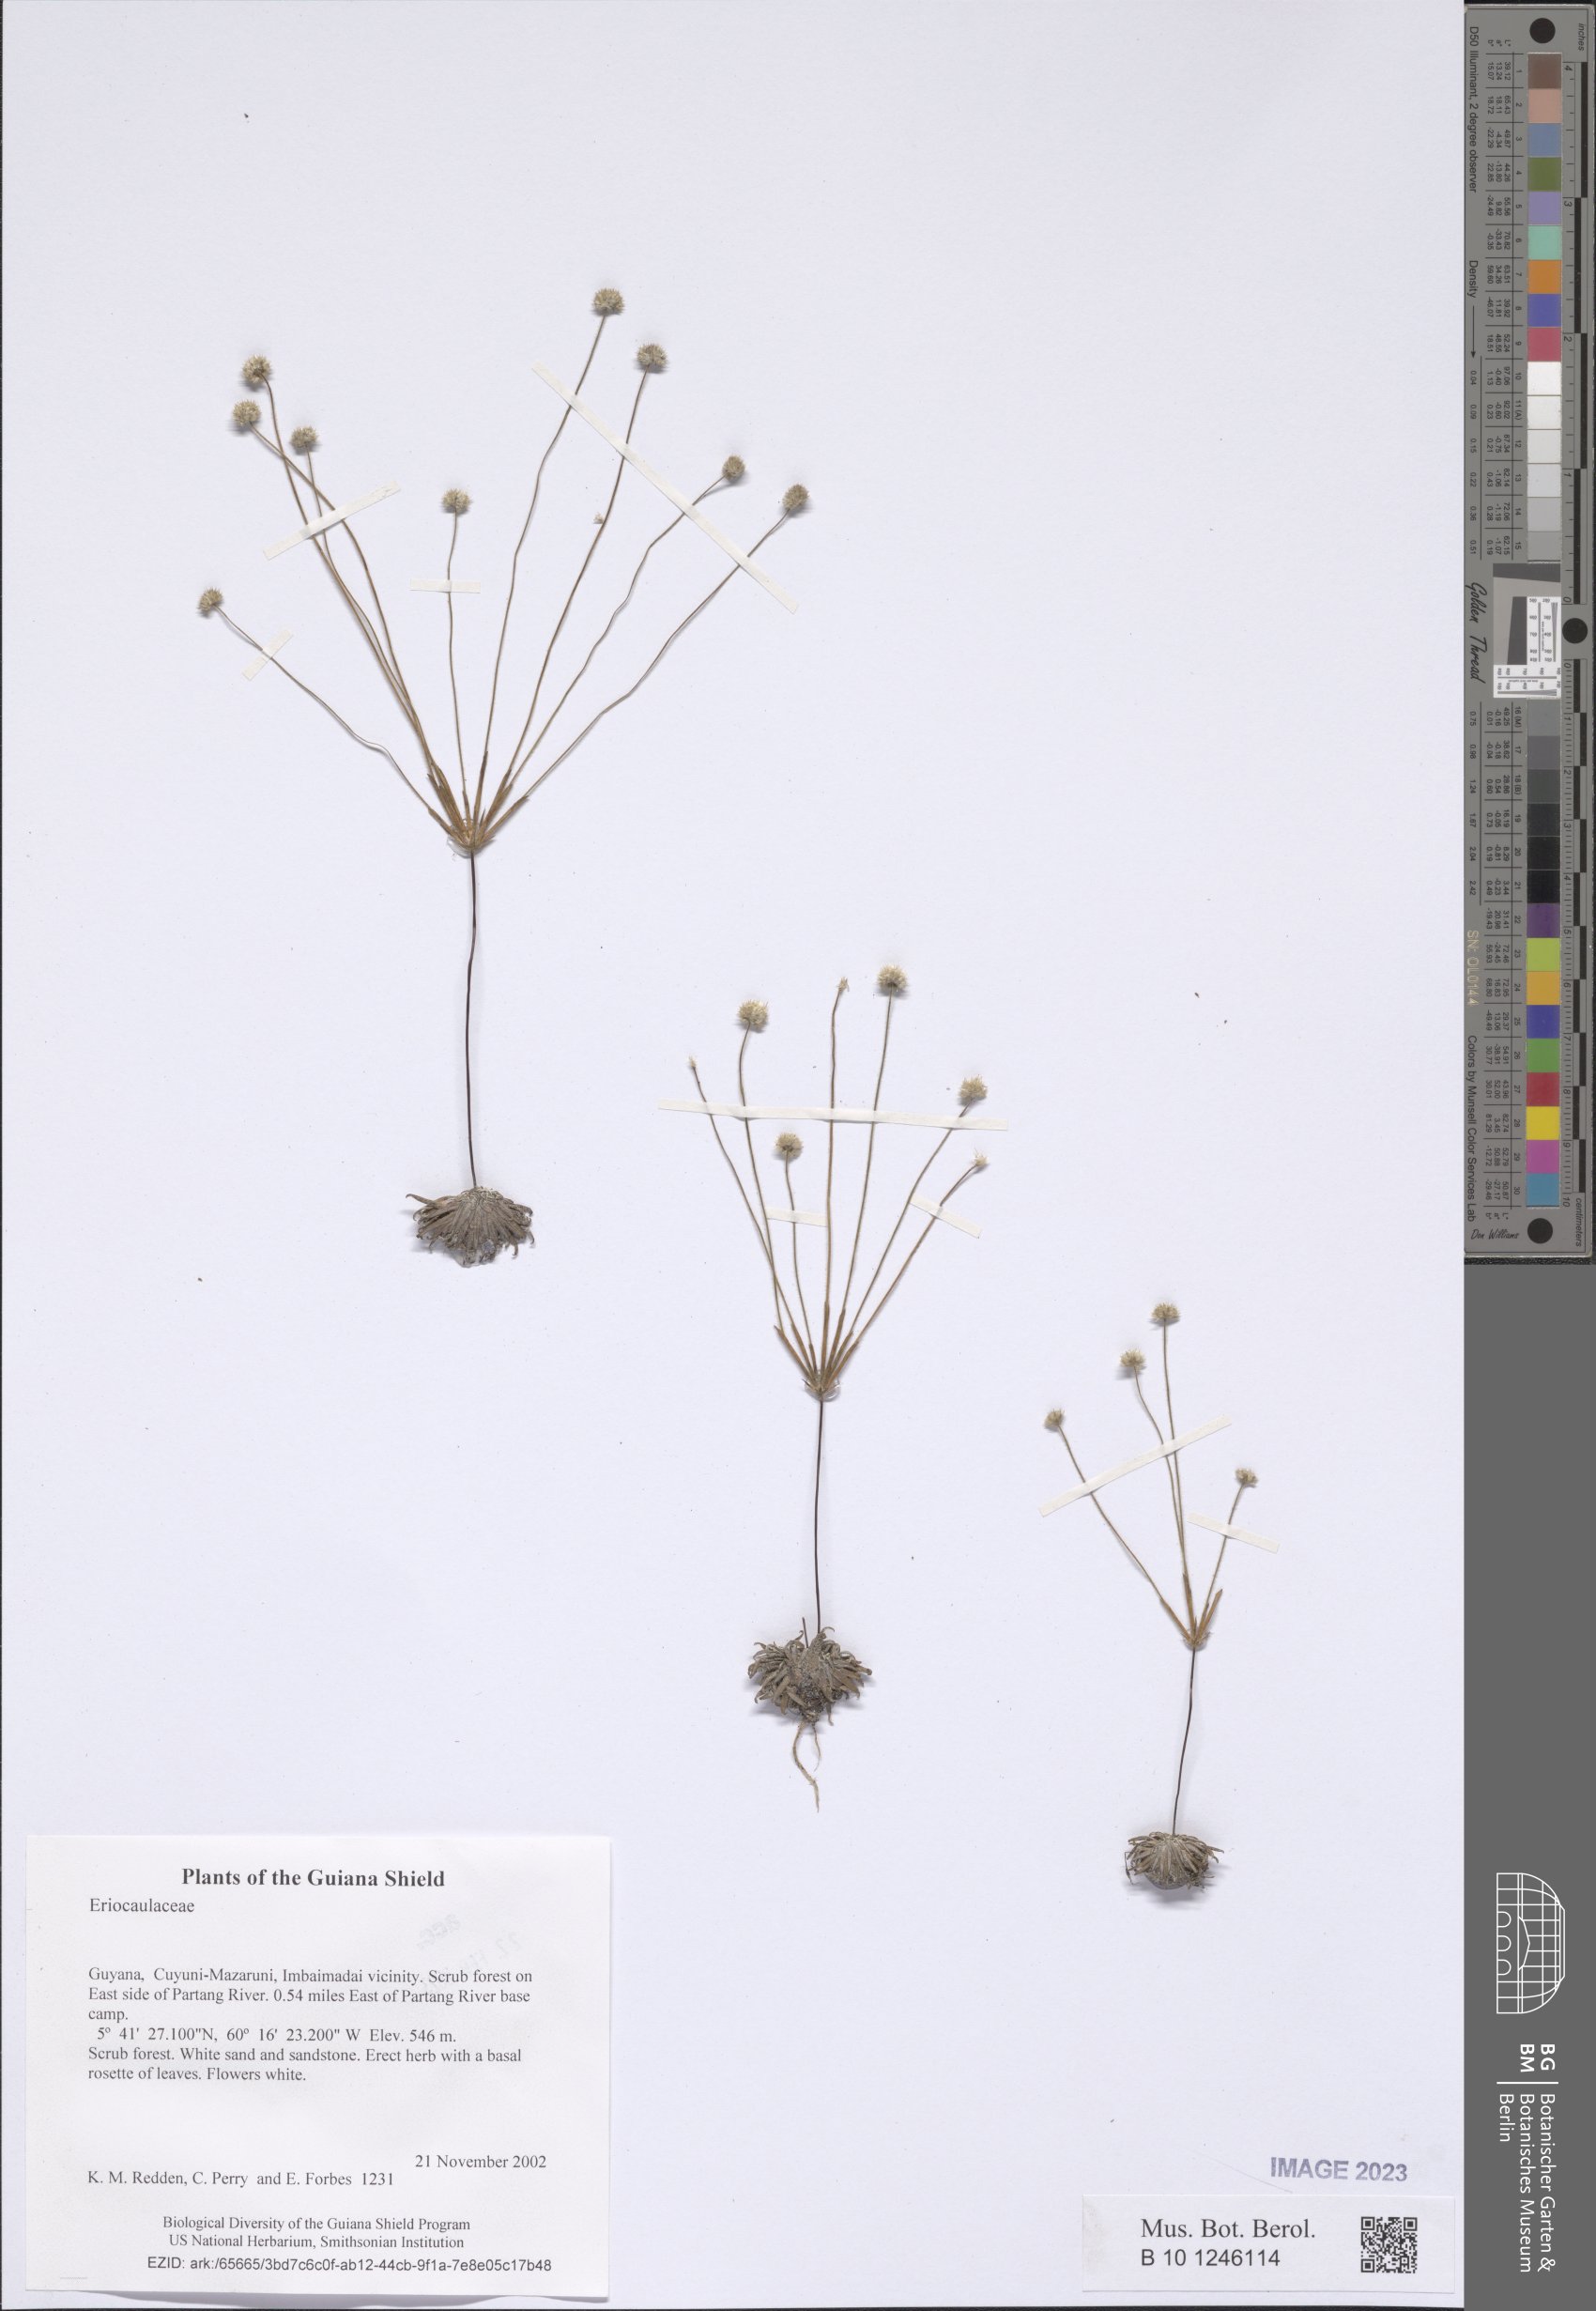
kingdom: Plantae
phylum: Tracheophyta
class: Liliopsida
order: Poales
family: Eriocaulaceae
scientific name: Eriocaulaceae
